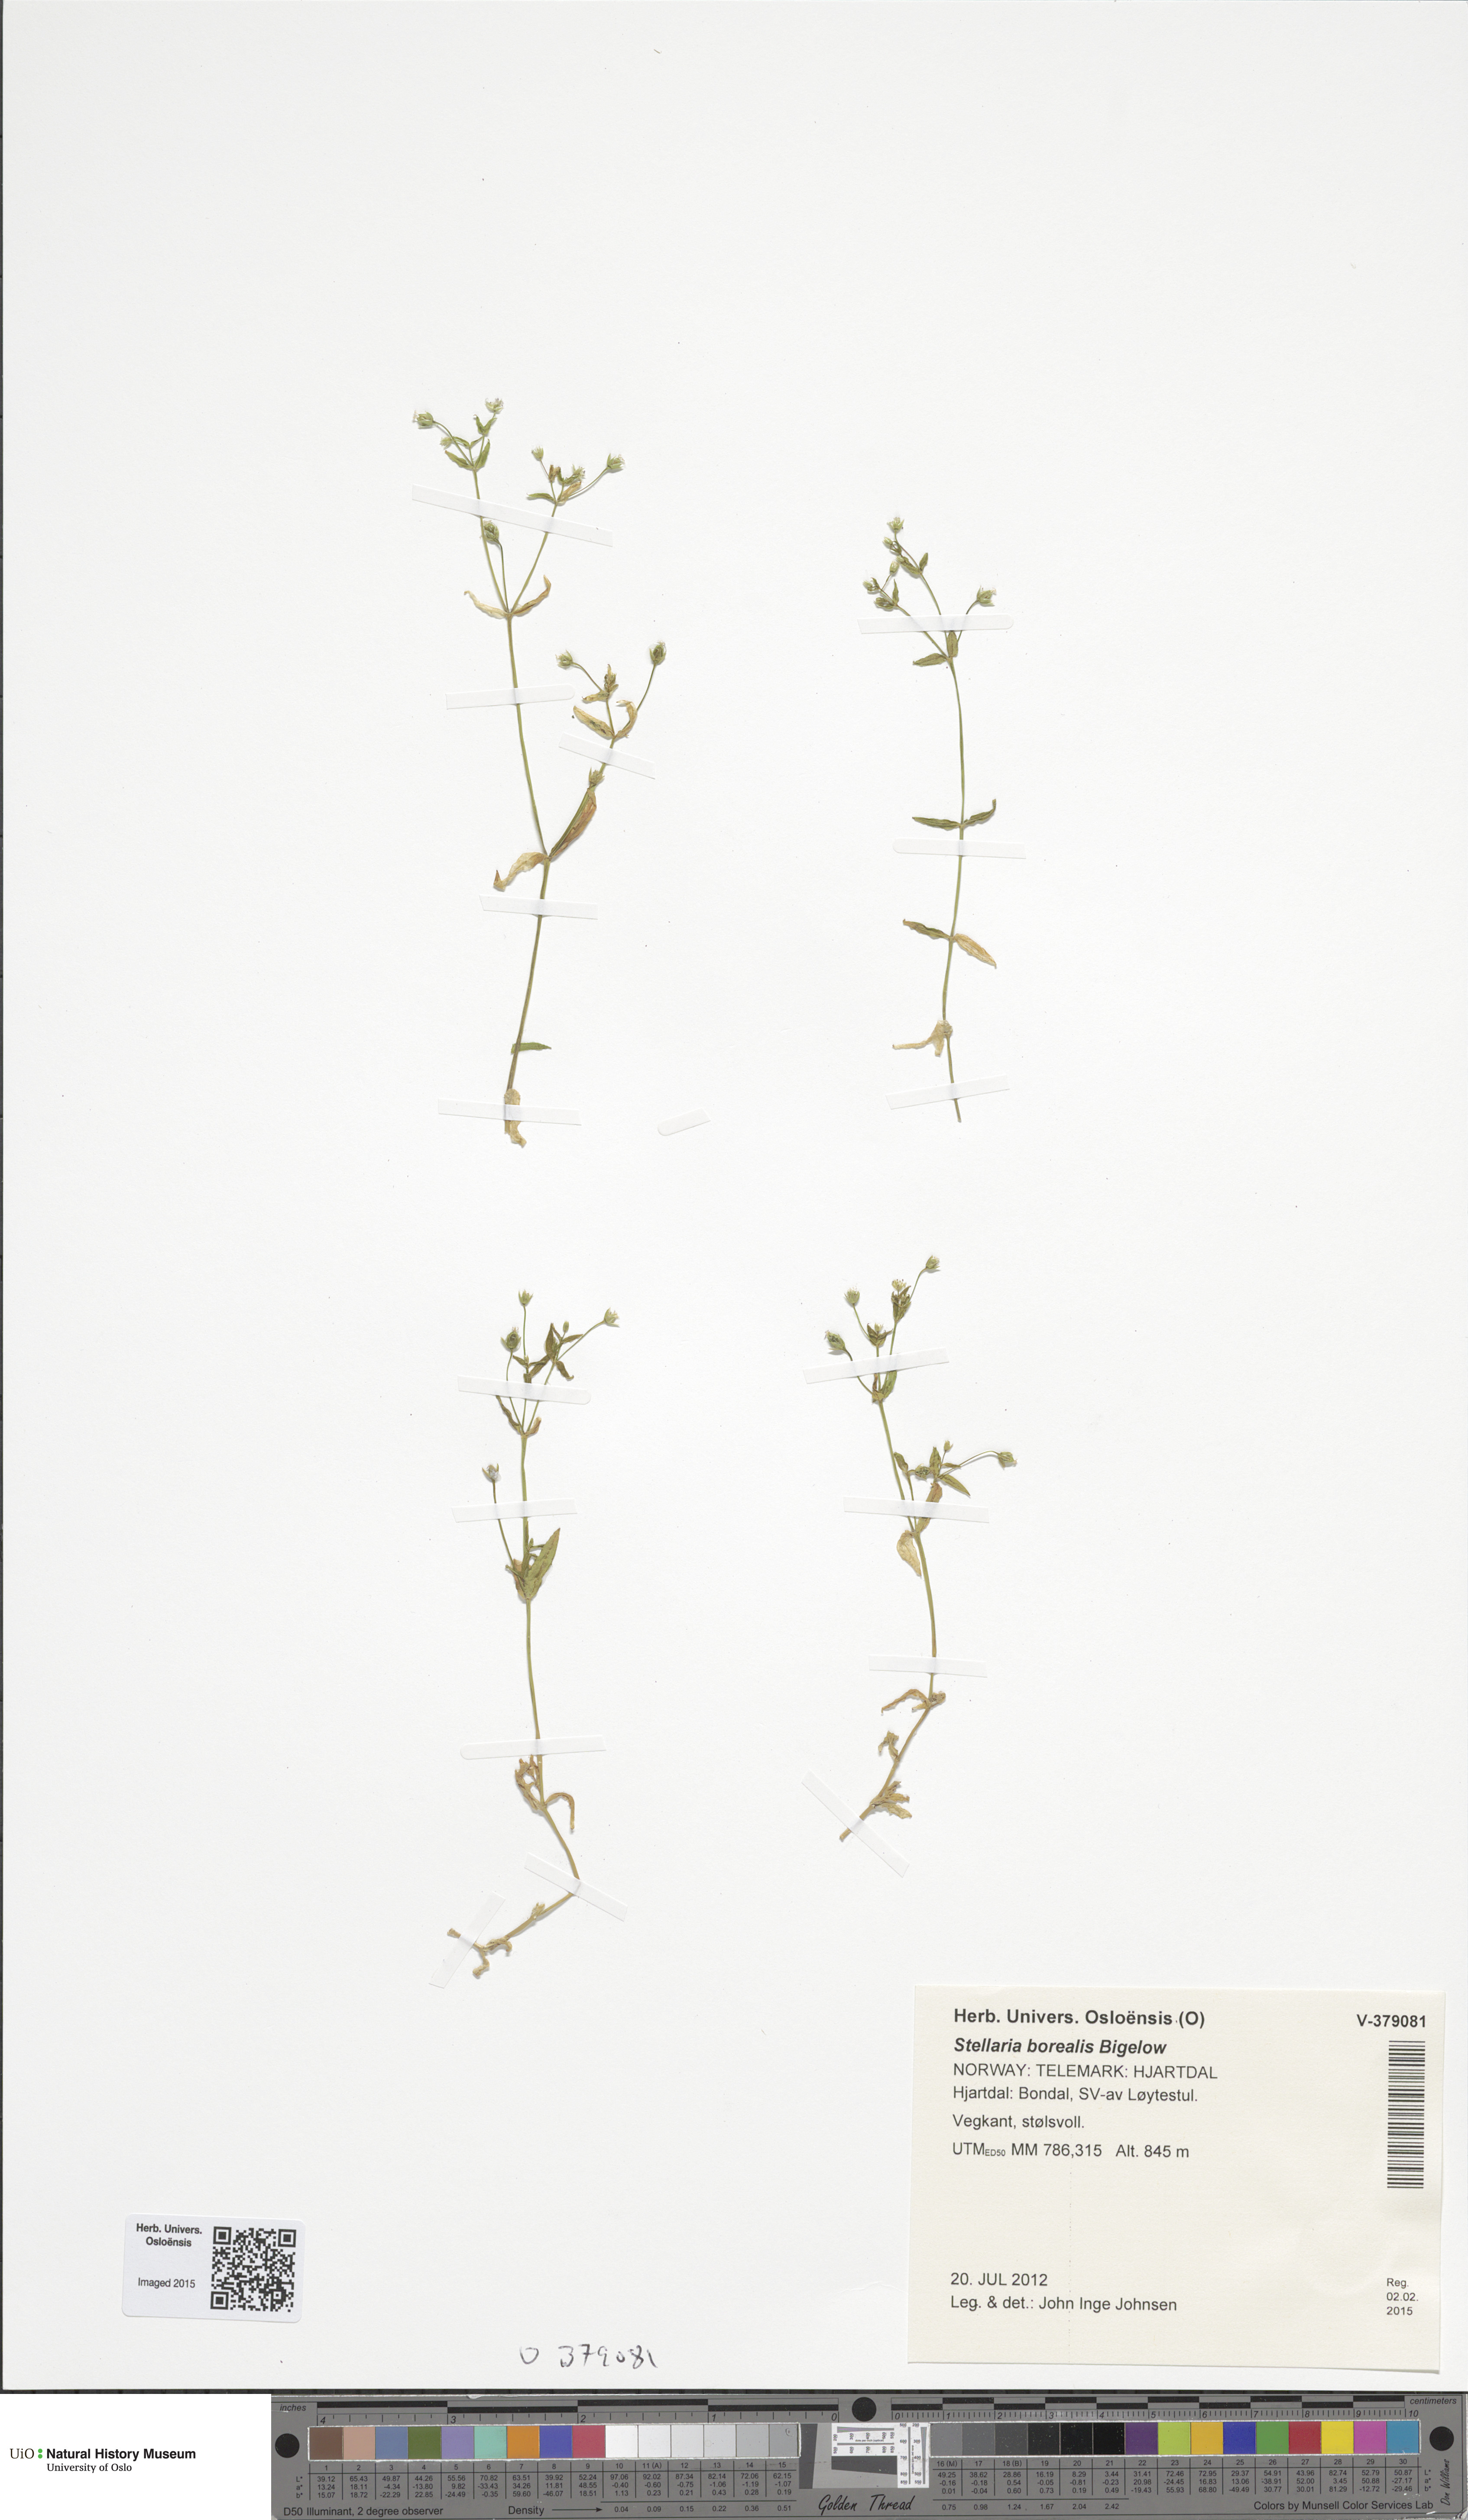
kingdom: Plantae
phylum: Tracheophyta
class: Magnoliopsida
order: Caryophyllales
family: Caryophyllaceae
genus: Stellaria
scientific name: Stellaria borealis
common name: Boreal starwort
